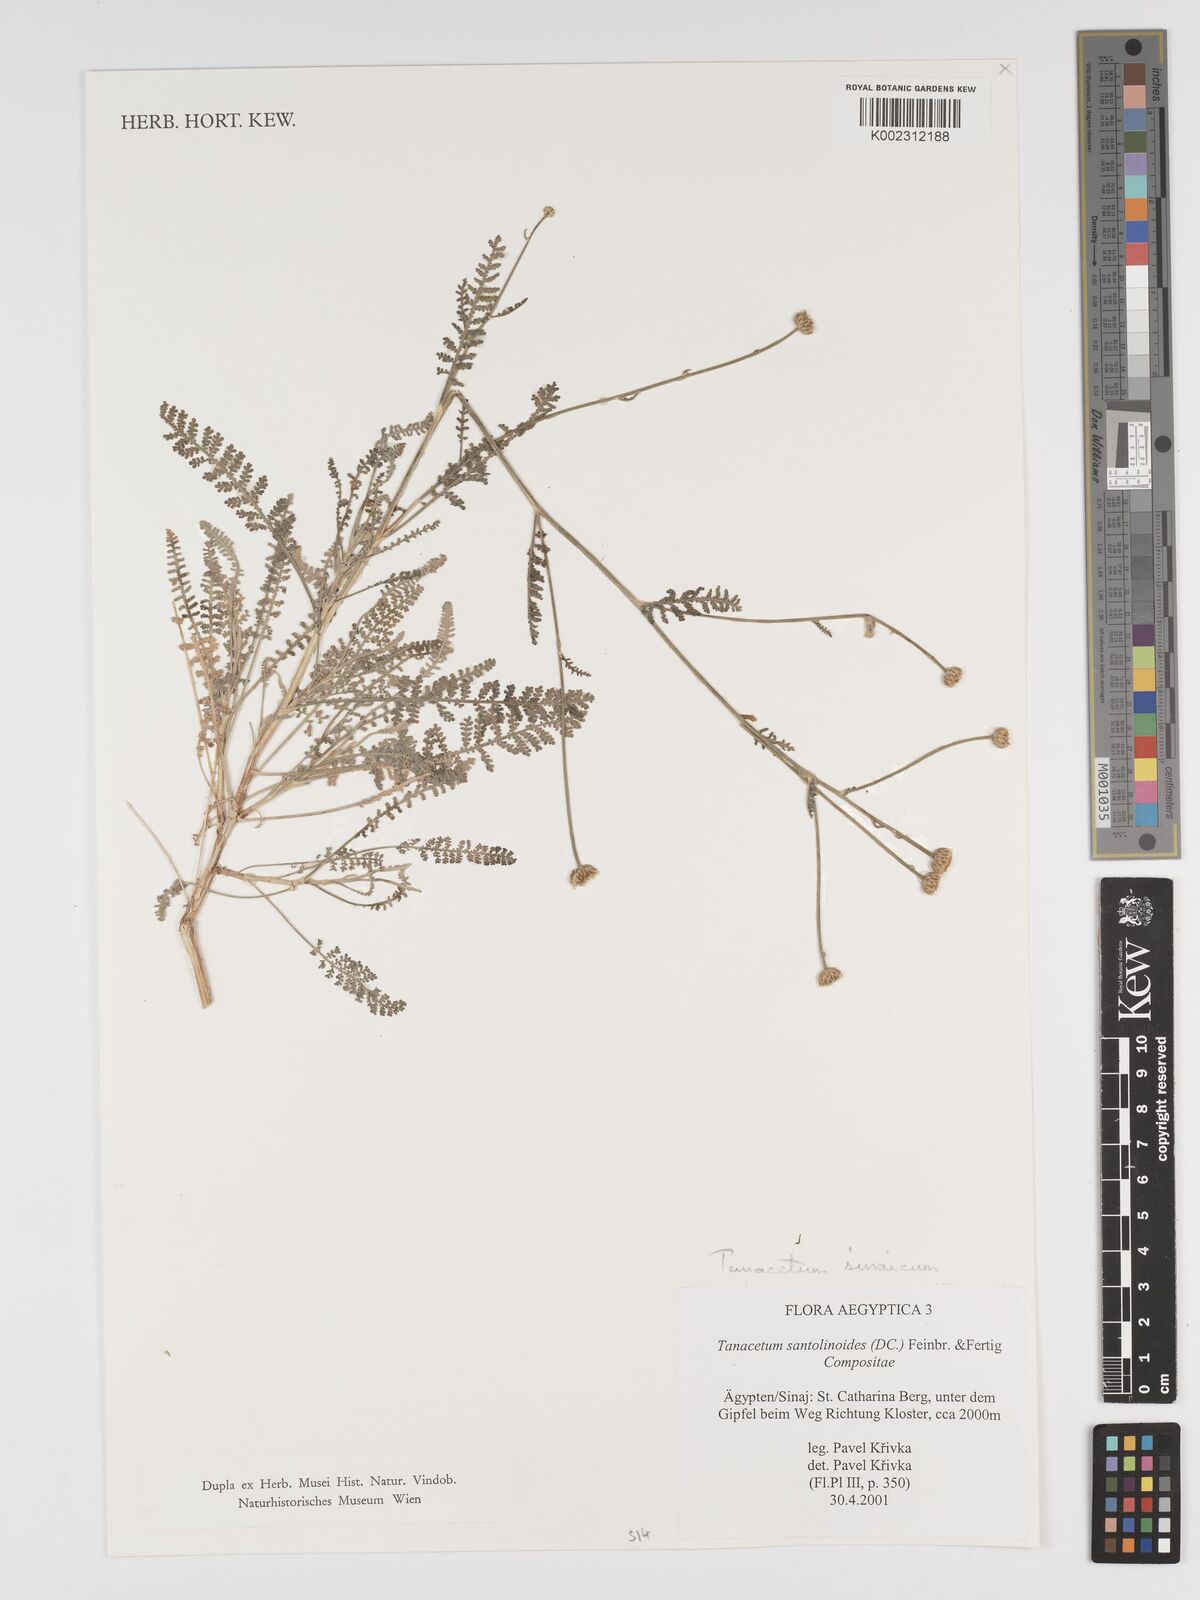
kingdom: Plantae
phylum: Tracheophyta
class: Magnoliopsida
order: Asterales
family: Asteraceae
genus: Tanacetum
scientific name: Tanacetum sinaicum
